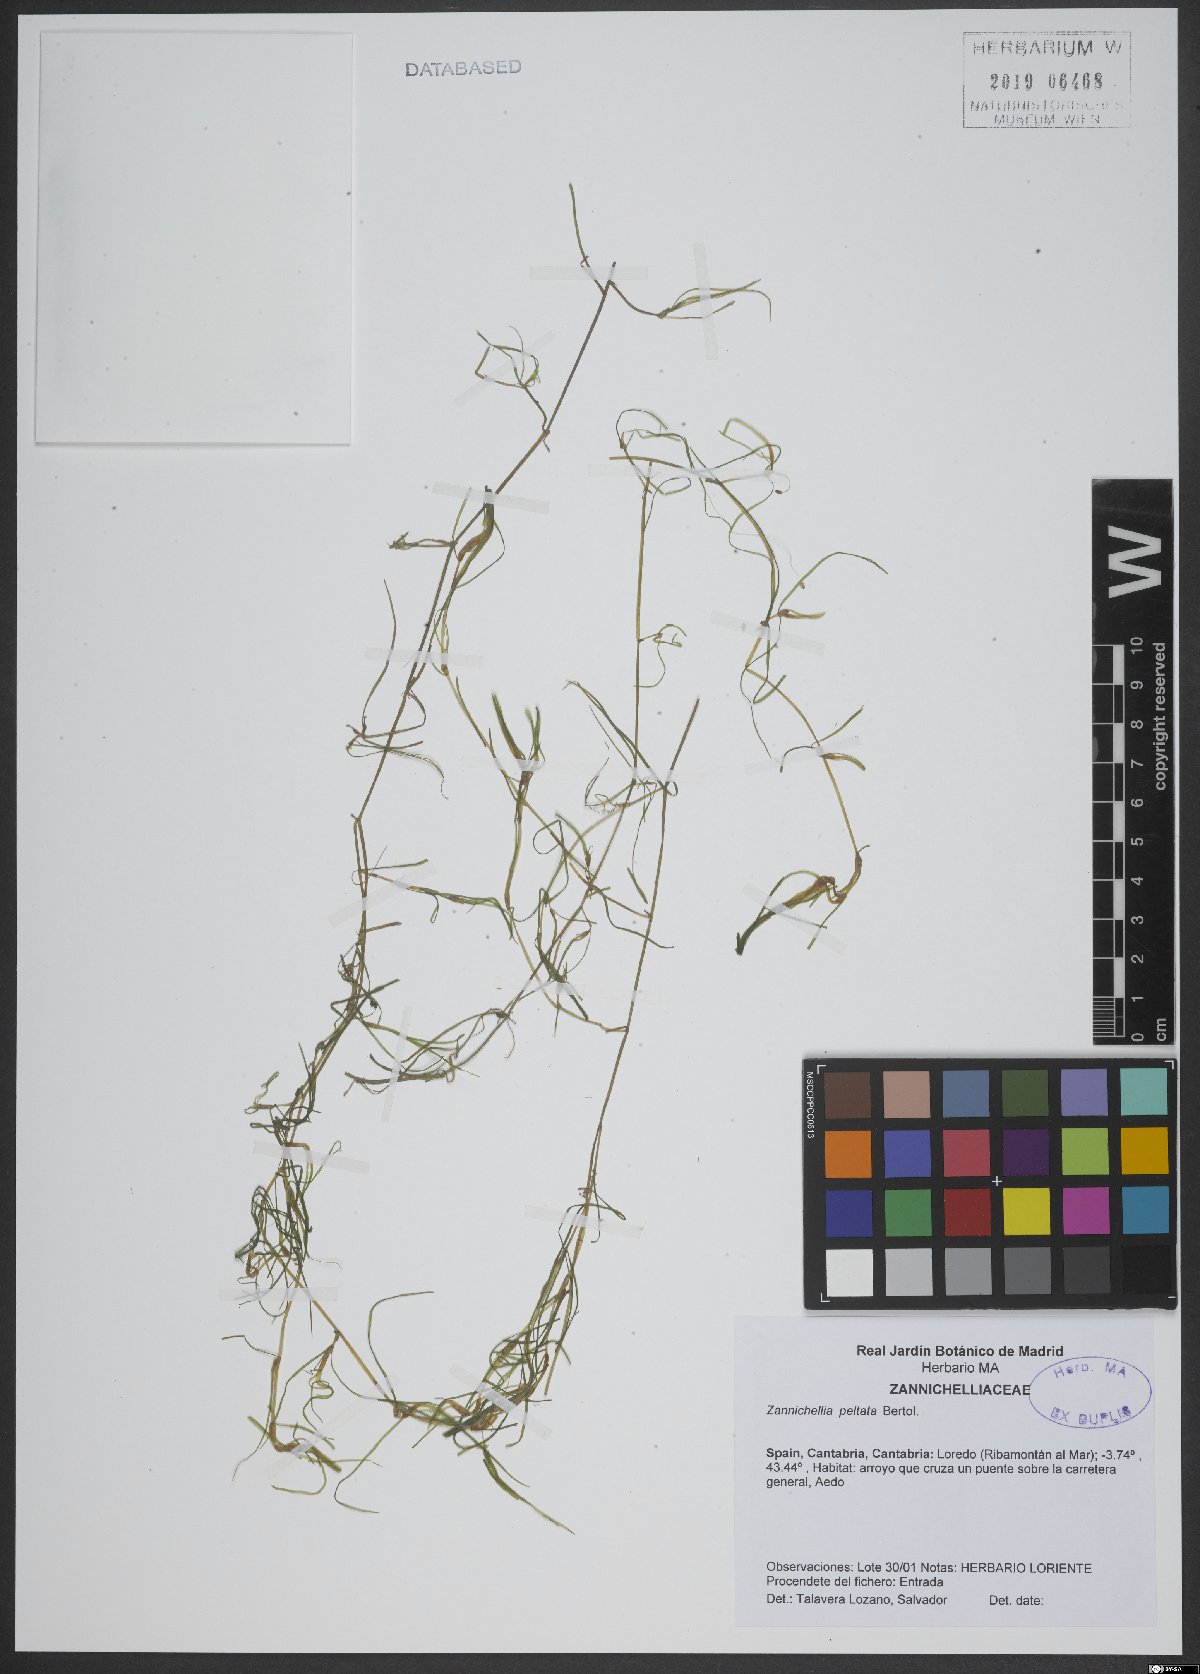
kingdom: Plantae
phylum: Tracheophyta
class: Liliopsida
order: Alismatales
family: Potamogetonaceae
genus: Zannichellia
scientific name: Zannichellia peltata
